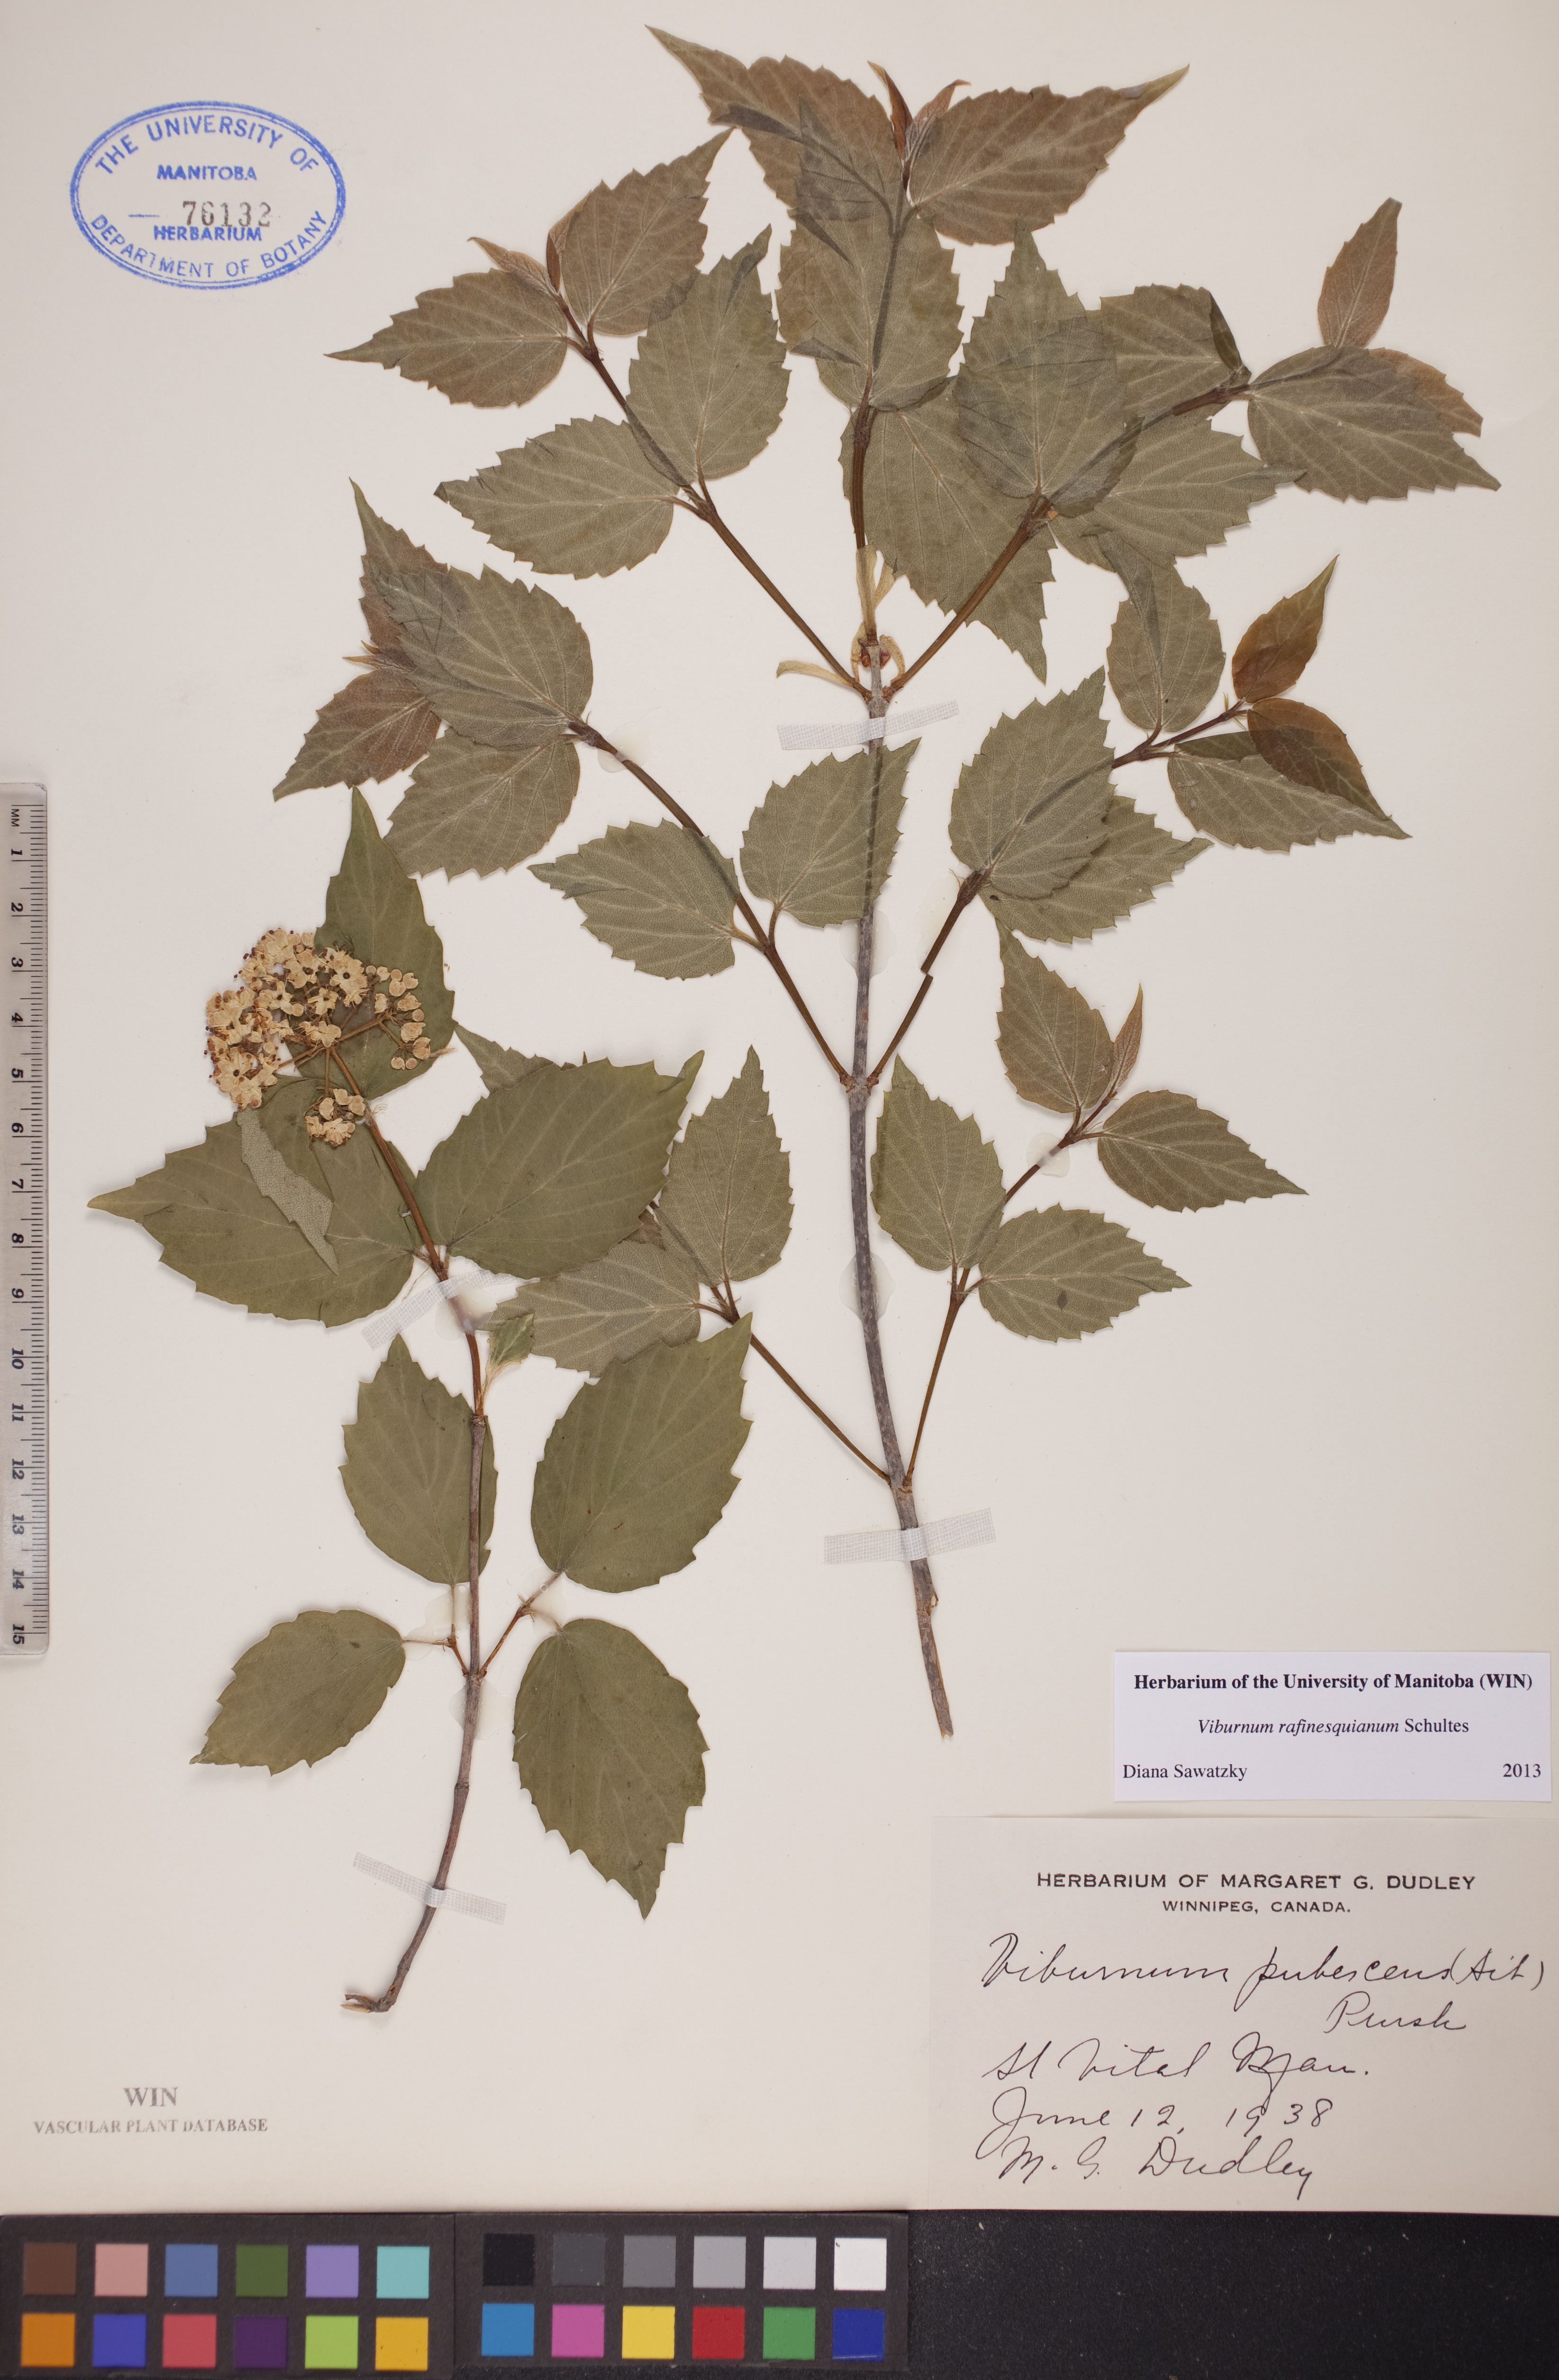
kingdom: Plantae
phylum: Tracheophyta
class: Magnoliopsida
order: Dipsacales
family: Viburnaceae
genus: Viburnum
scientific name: Viburnum rafinesquianum
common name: Downy arrow-wood
